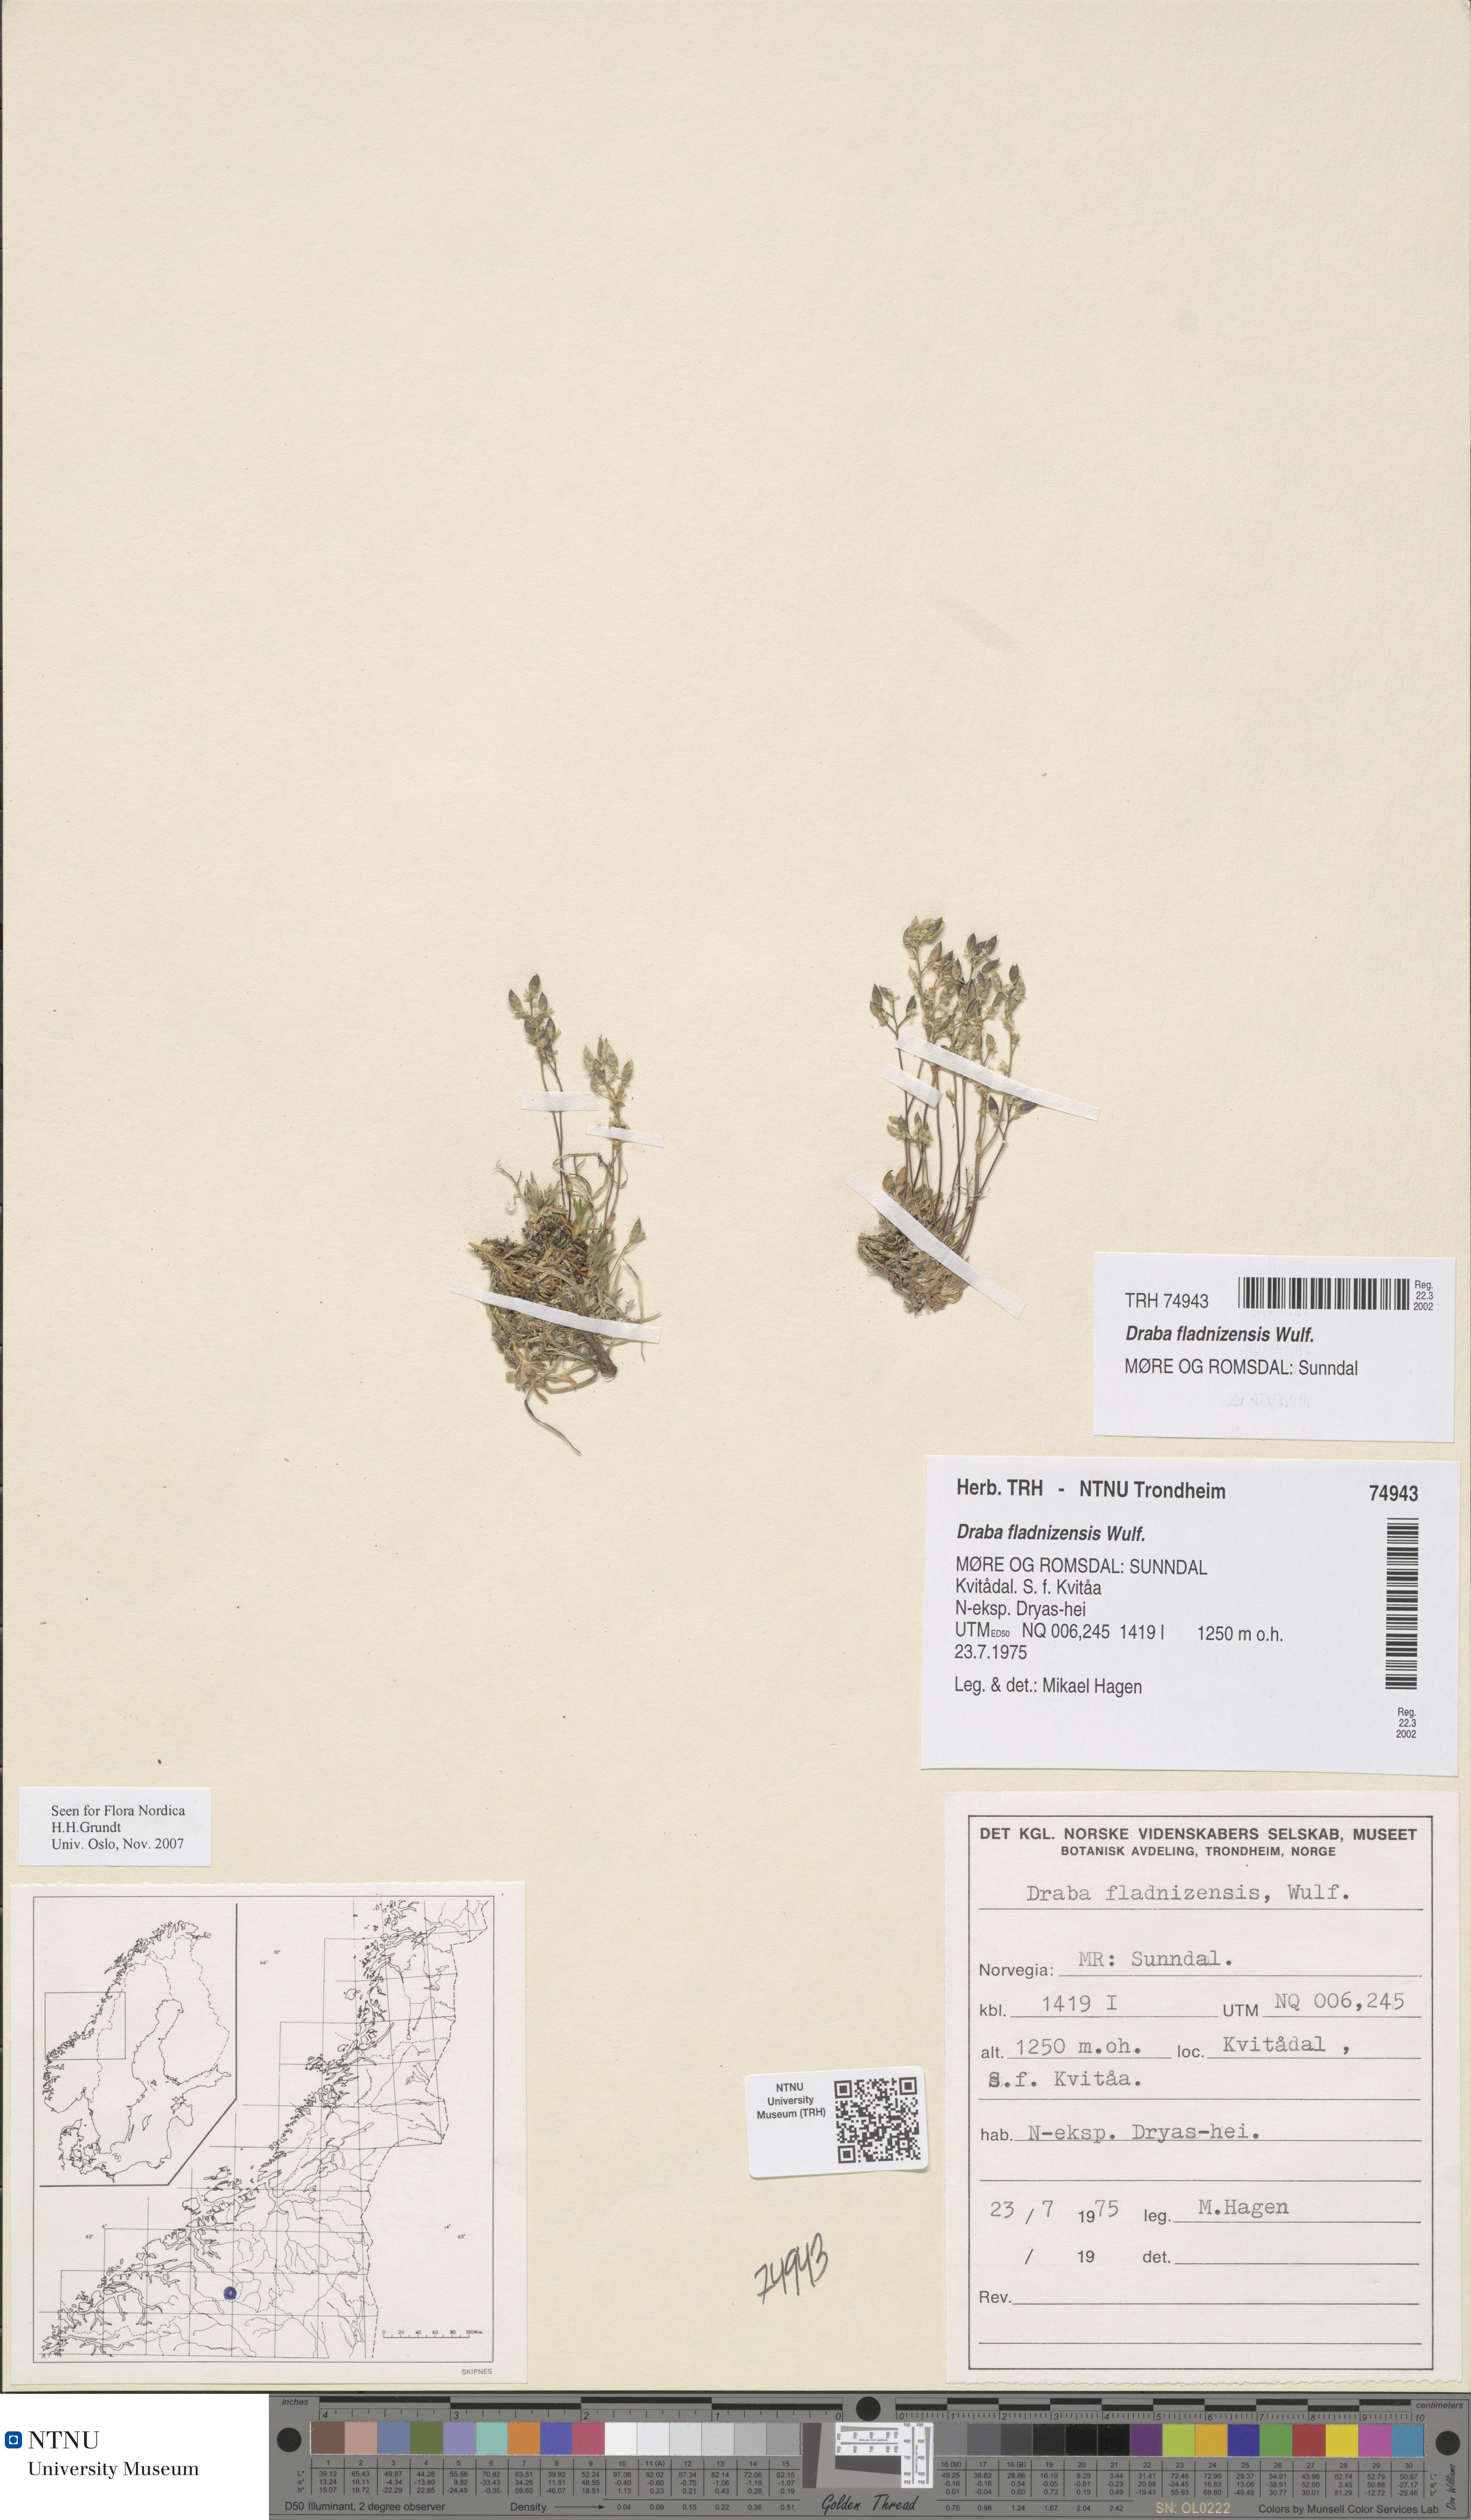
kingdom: Plantae
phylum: Tracheophyta
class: Magnoliopsida
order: Brassicales
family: Brassicaceae
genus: Draba
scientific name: Draba fladnizensis
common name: Austrian draba
